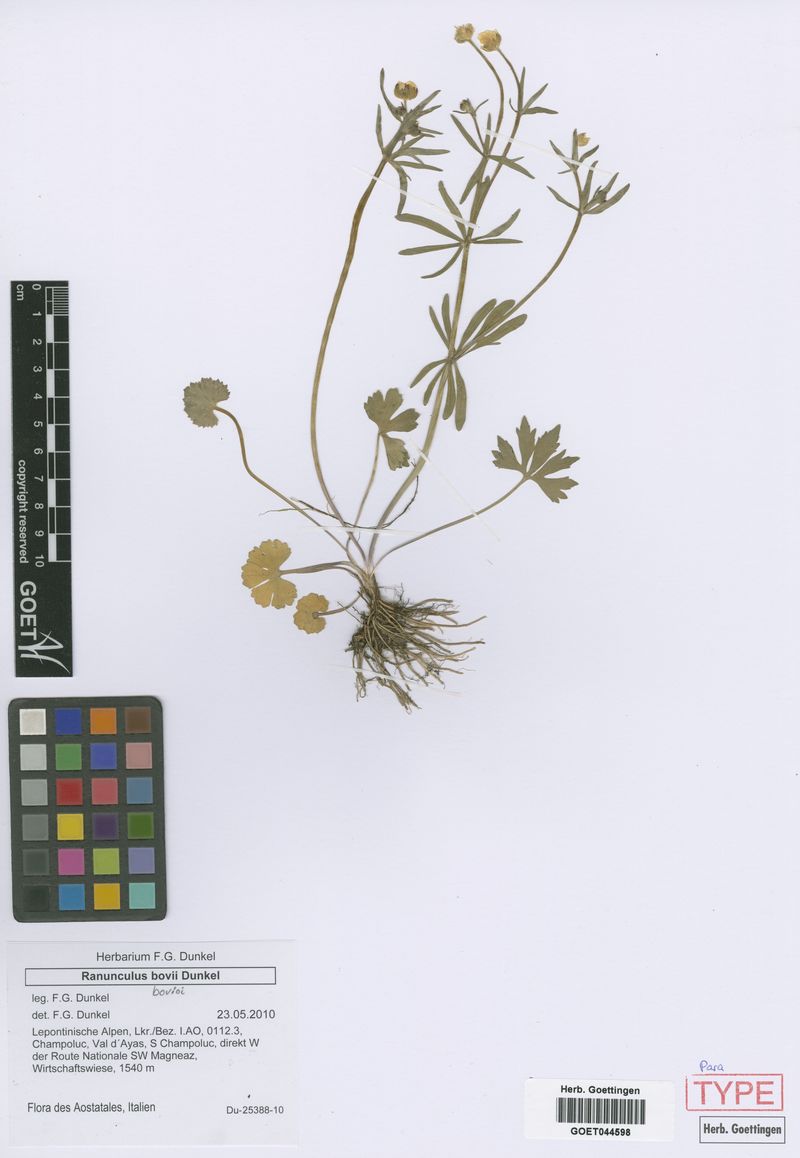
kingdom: Plantae
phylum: Tracheophyta
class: Magnoliopsida
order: Ranunculales
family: Ranunculaceae
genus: Ranunculus
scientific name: Ranunculus bovioi
